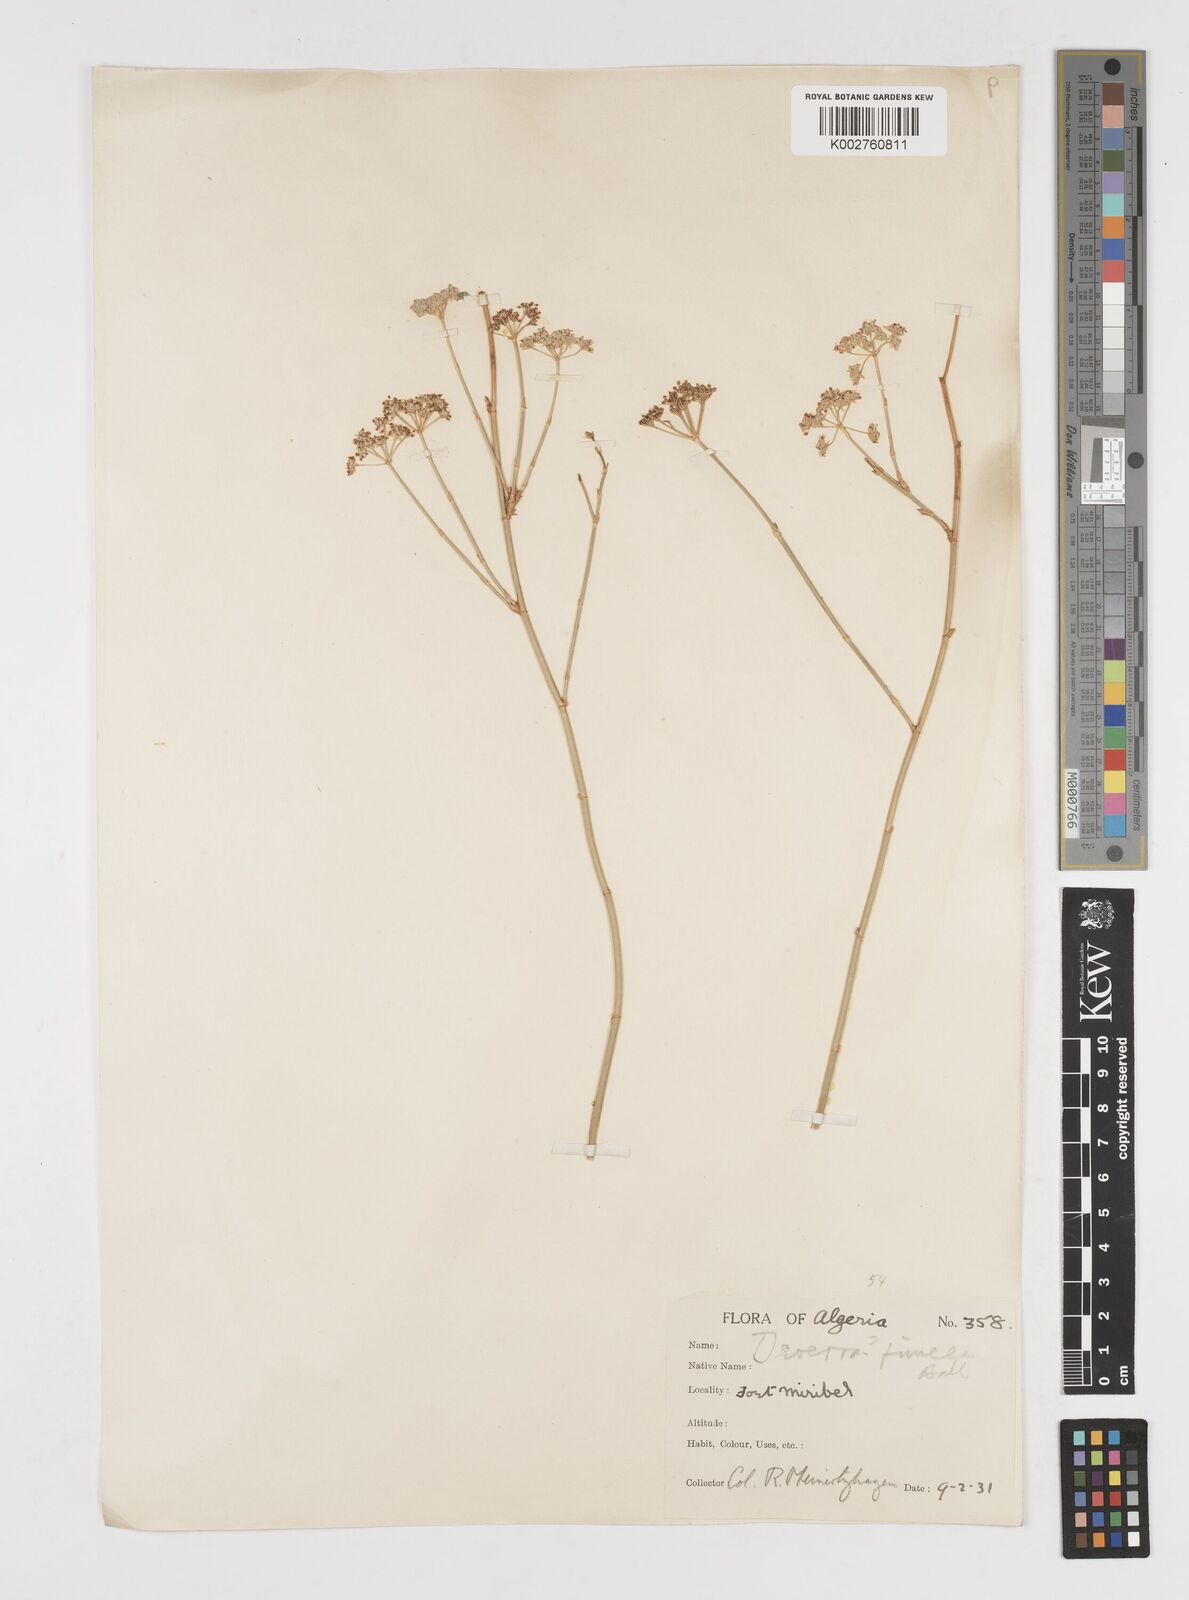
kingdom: Plantae
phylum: Tracheophyta
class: Magnoliopsida
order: Apiales
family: Apiaceae
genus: Deverra
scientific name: Deverra scoparia
